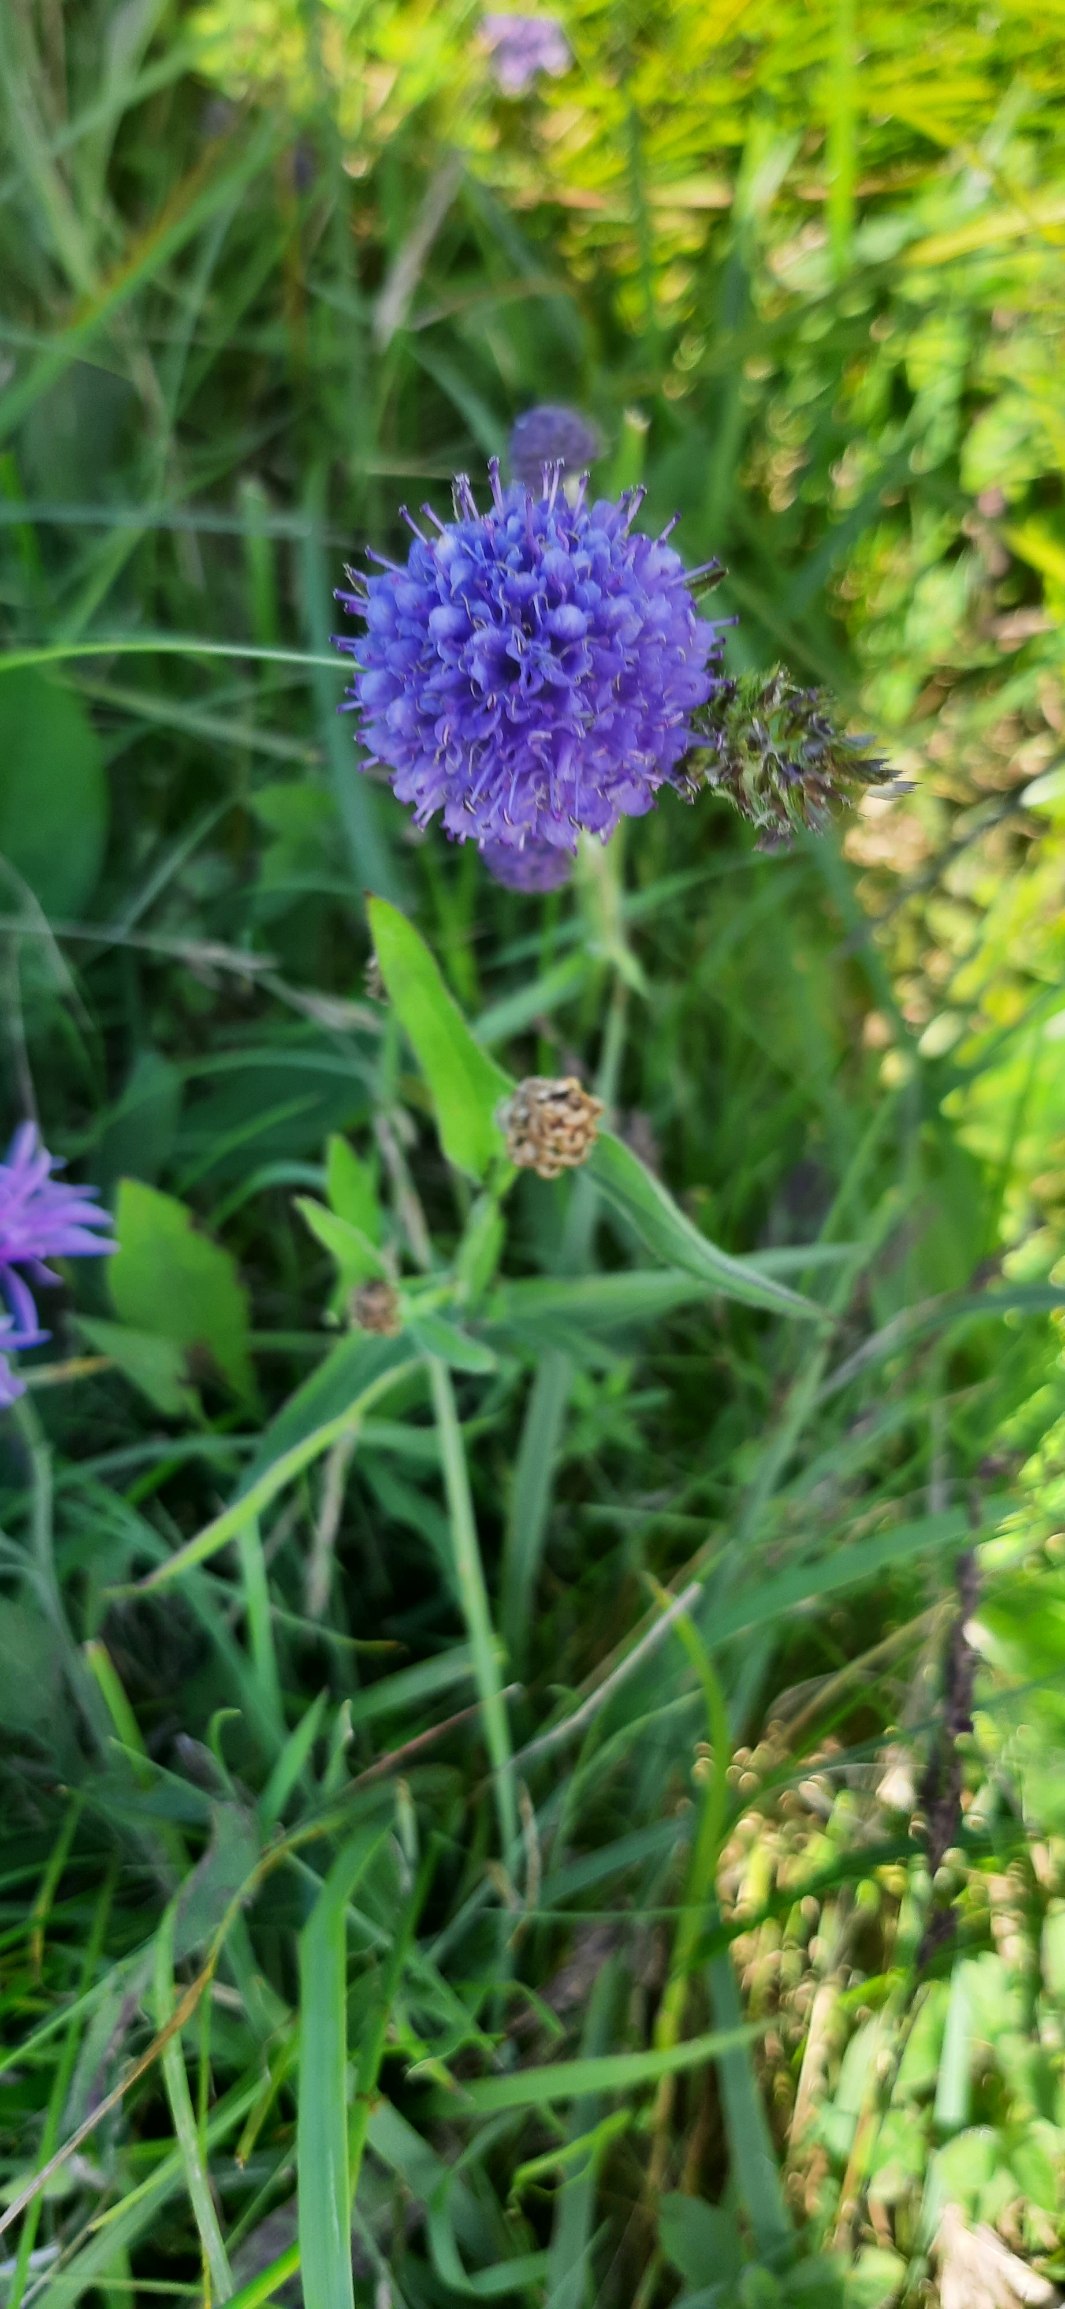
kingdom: Plantae
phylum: Tracheophyta
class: Magnoliopsida
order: Dipsacales
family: Caprifoliaceae
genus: Succisa
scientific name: Succisa pratensis
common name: Djævelsbid
